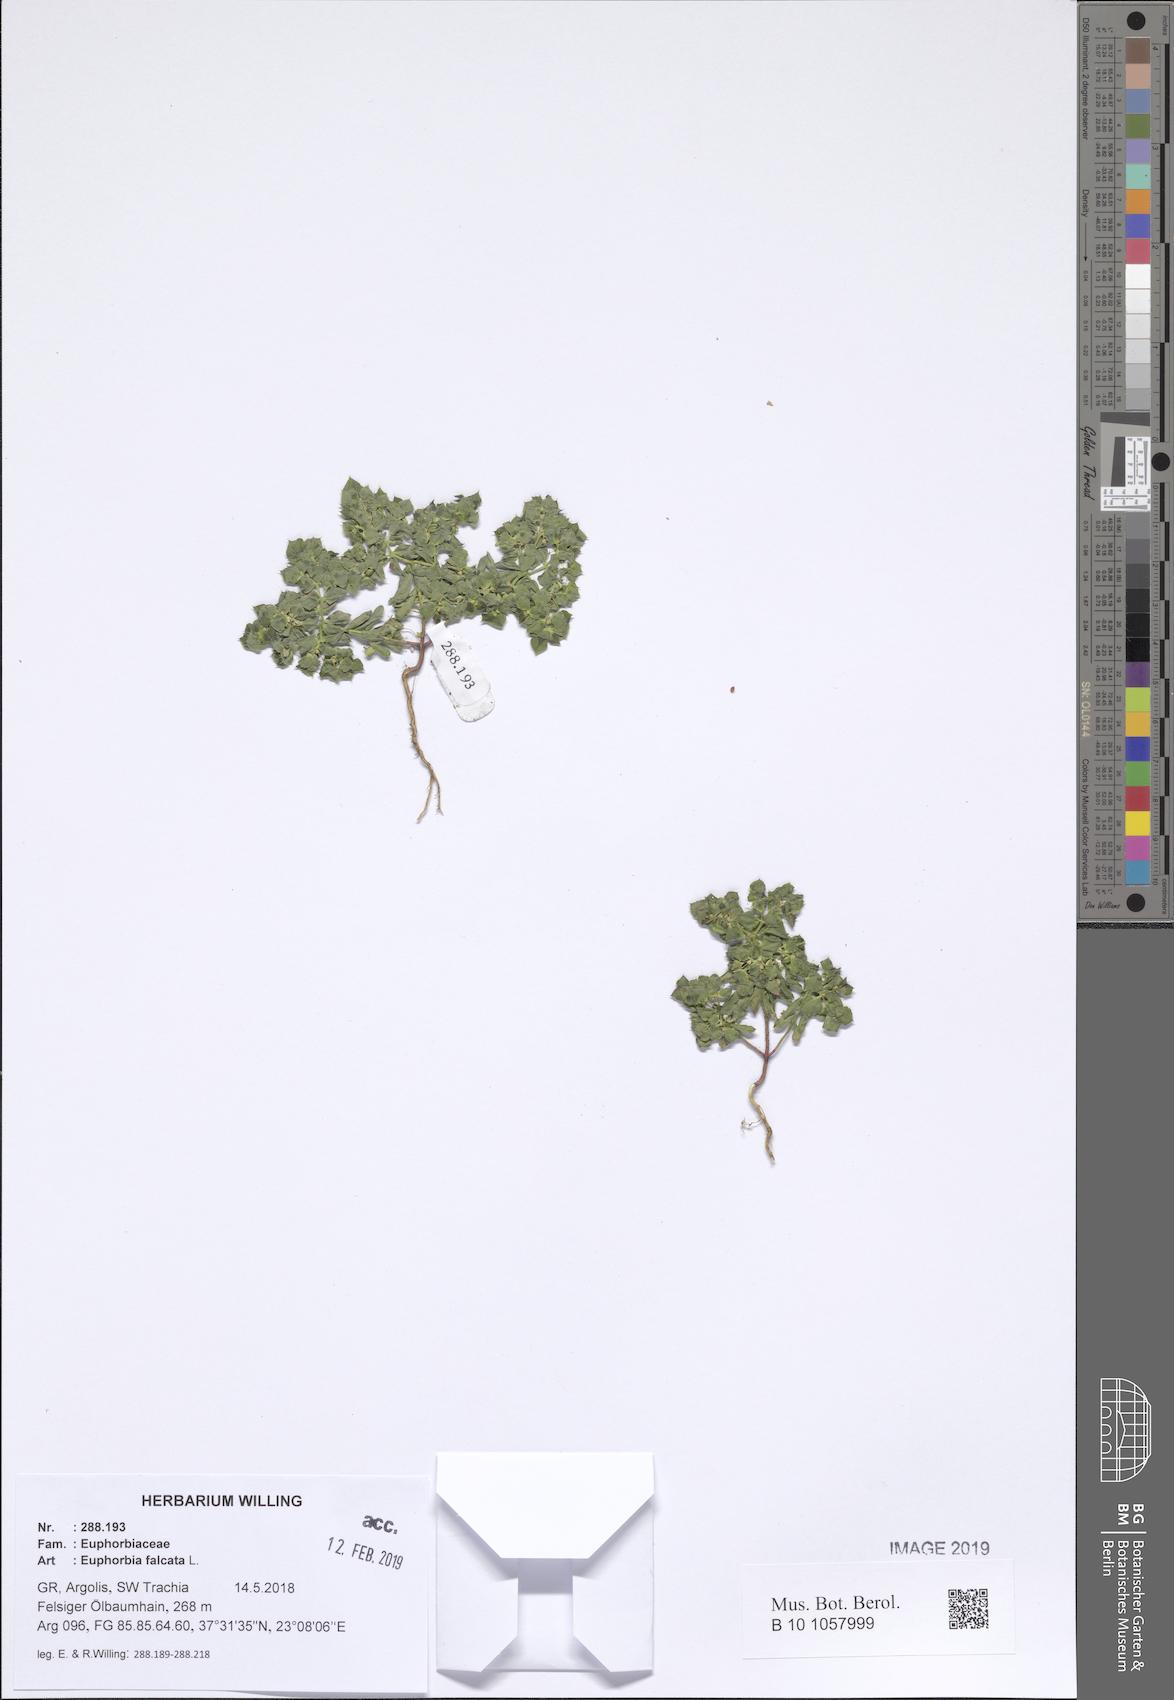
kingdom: Plantae
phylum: Tracheophyta
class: Magnoliopsida
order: Malpighiales
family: Euphorbiaceae
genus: Euphorbia
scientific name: Euphorbia falcata
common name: Sickle spurge
